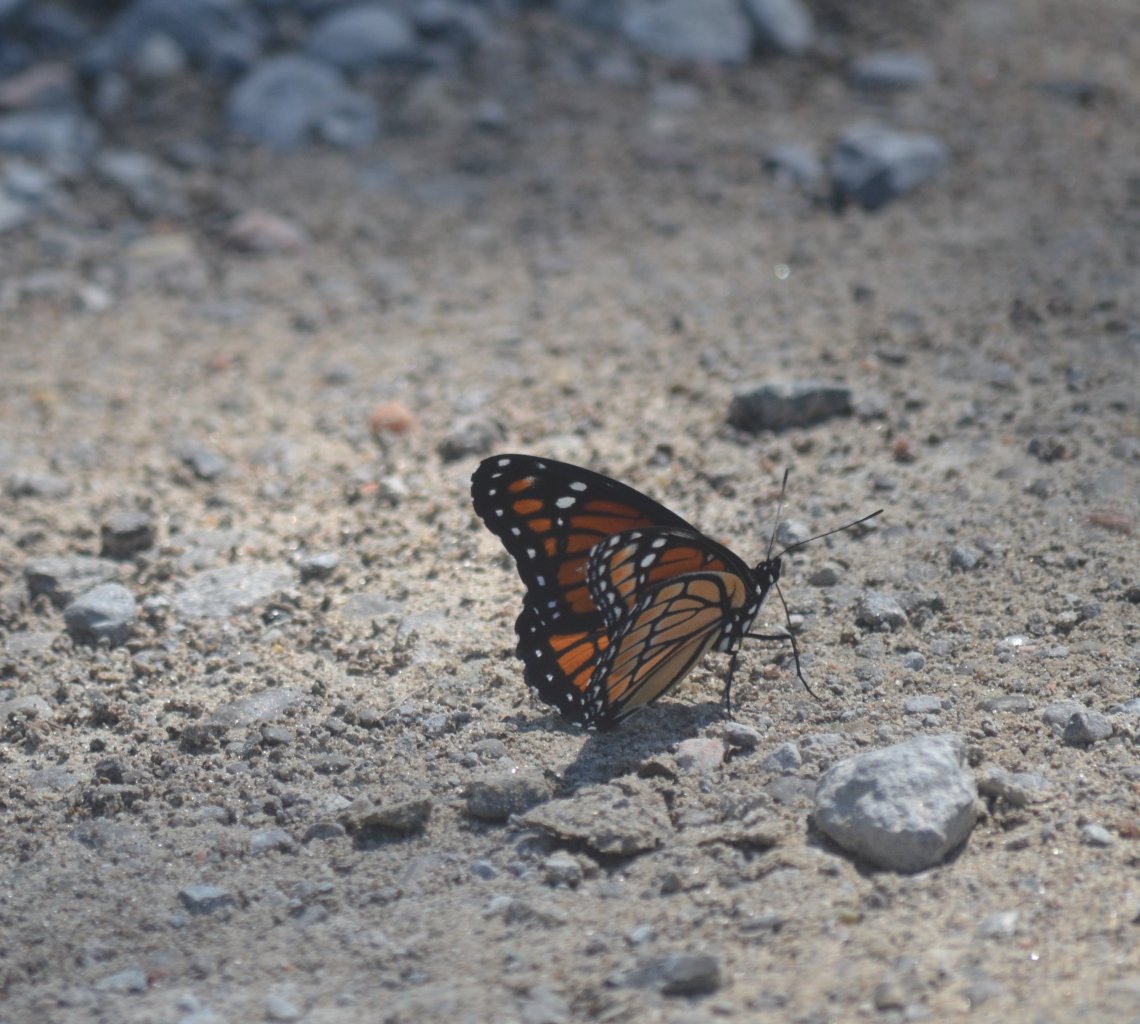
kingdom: Animalia
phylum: Arthropoda
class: Insecta
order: Lepidoptera
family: Nymphalidae
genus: Limenitis
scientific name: Limenitis archippus
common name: Viceroy
